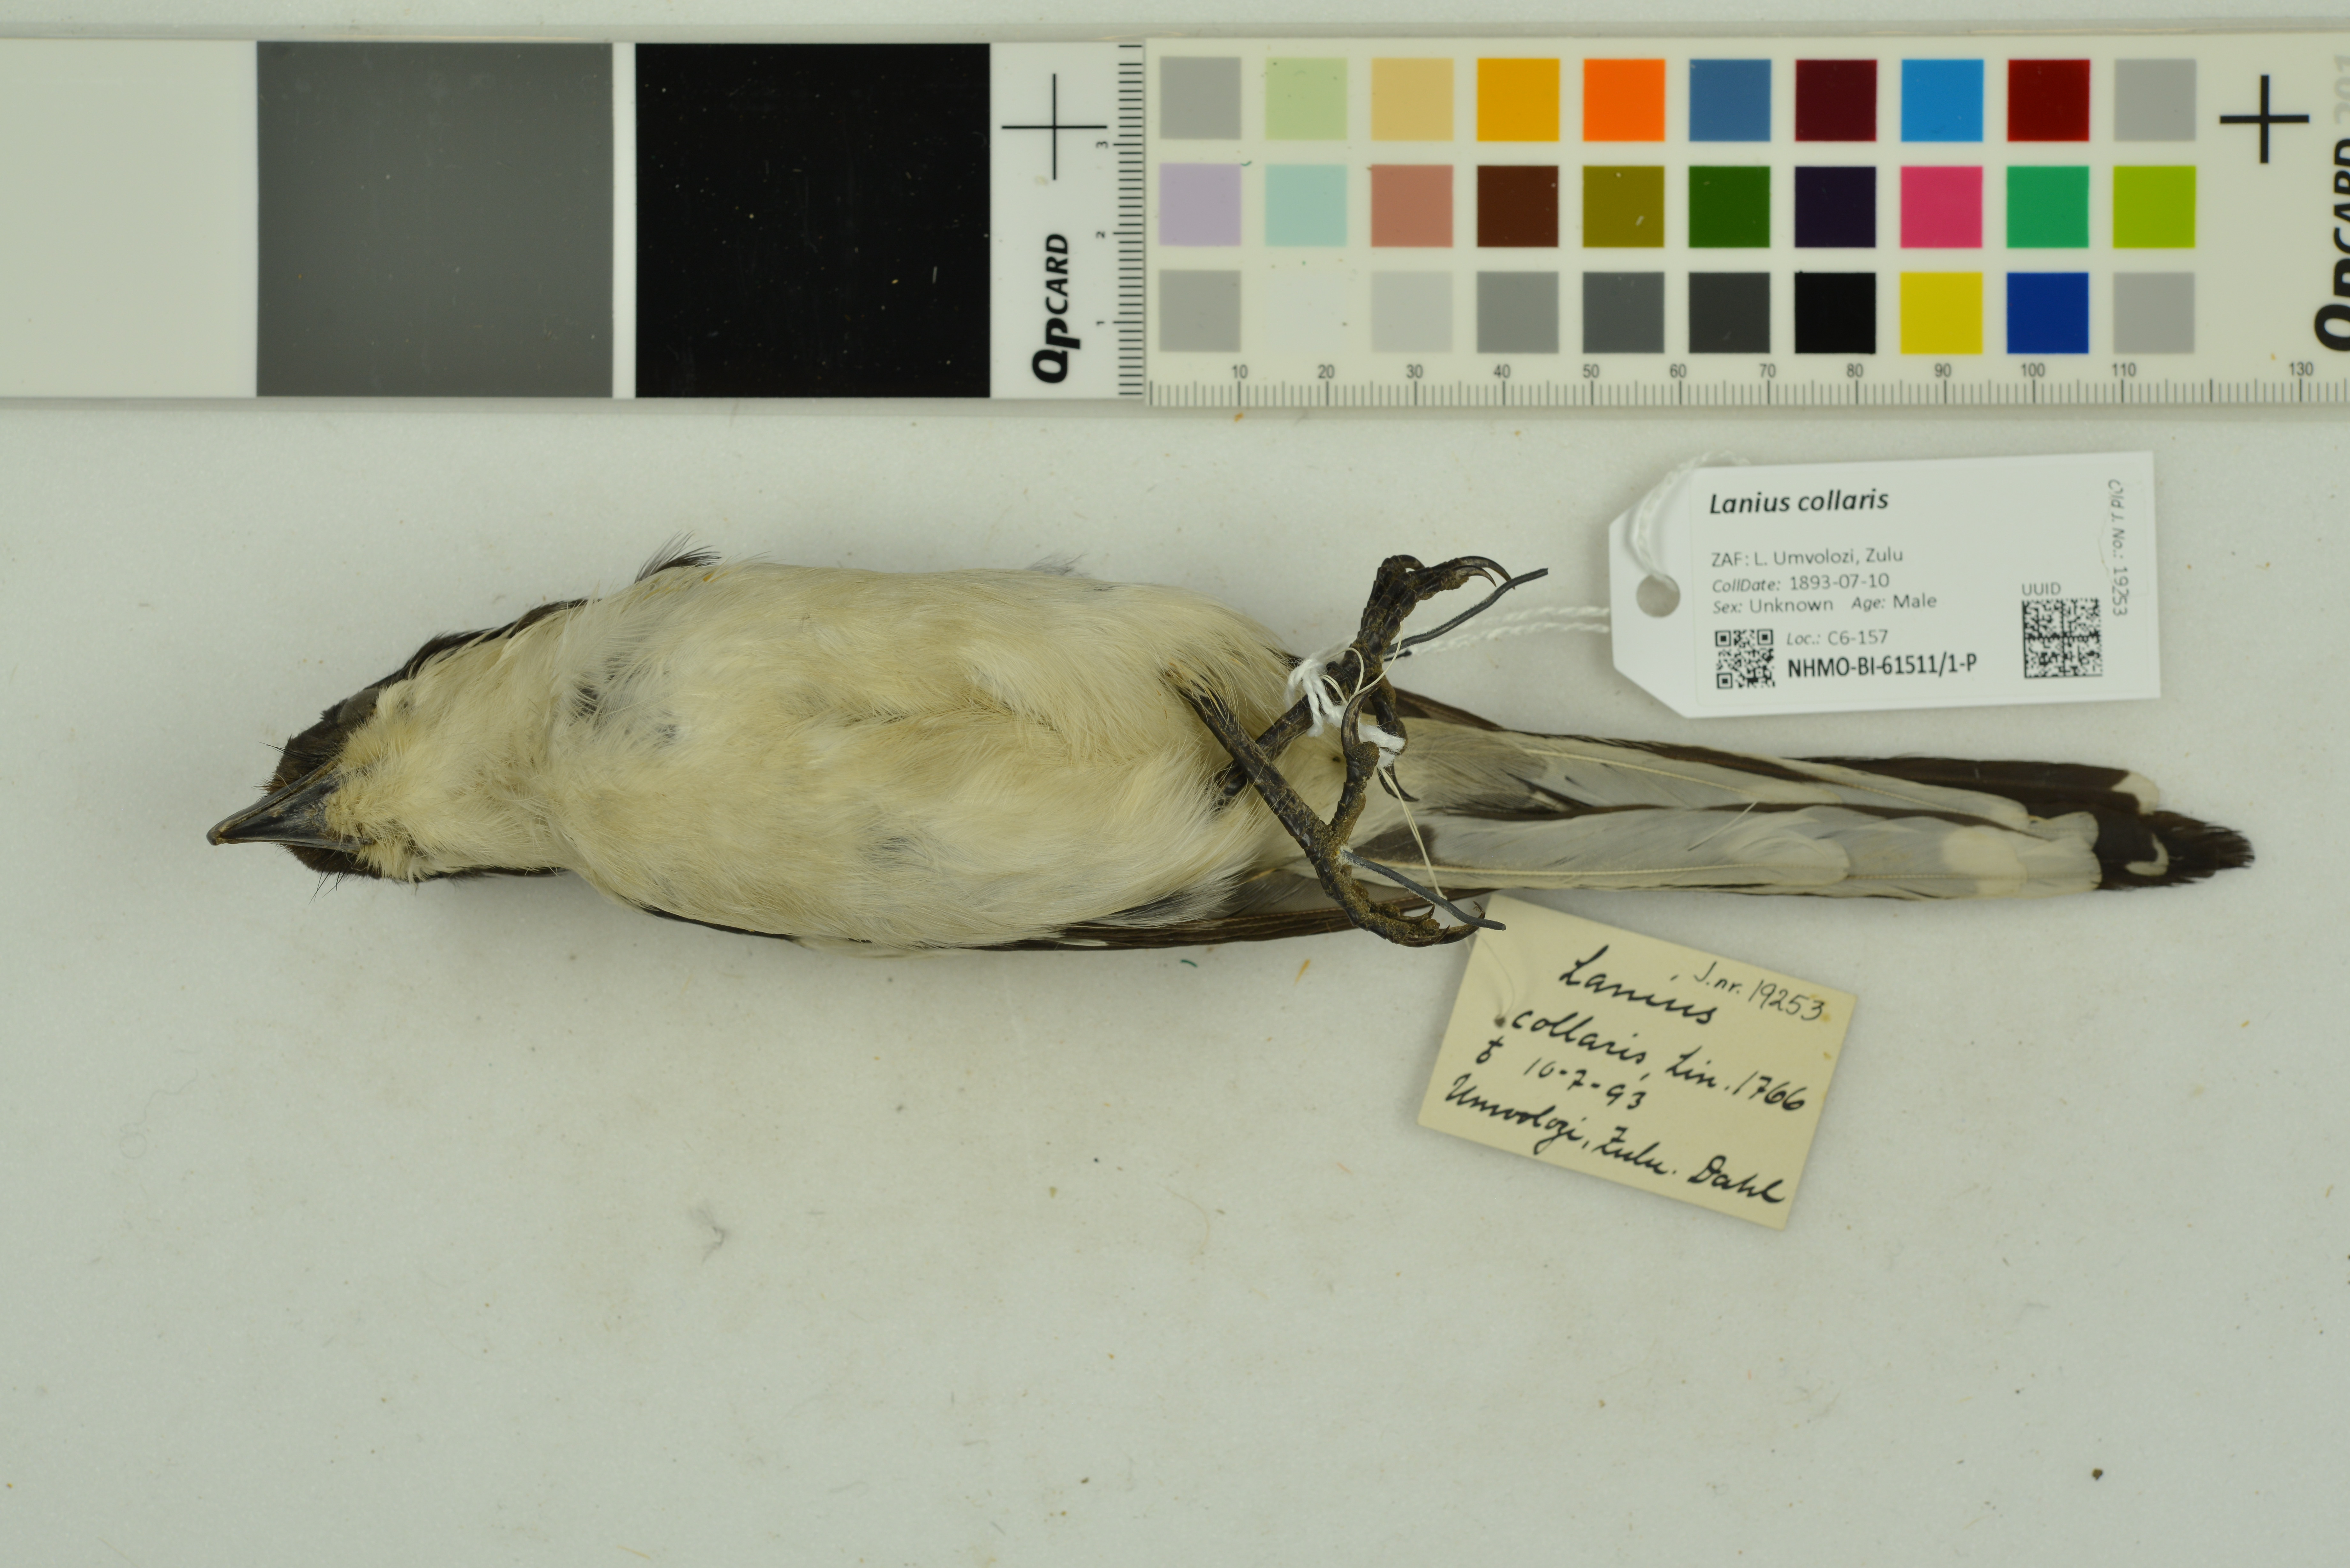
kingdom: Animalia
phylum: Chordata
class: Aves
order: Passeriformes
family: Laniidae
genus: Lanius
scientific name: Lanius collaris
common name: Southern fiscal
